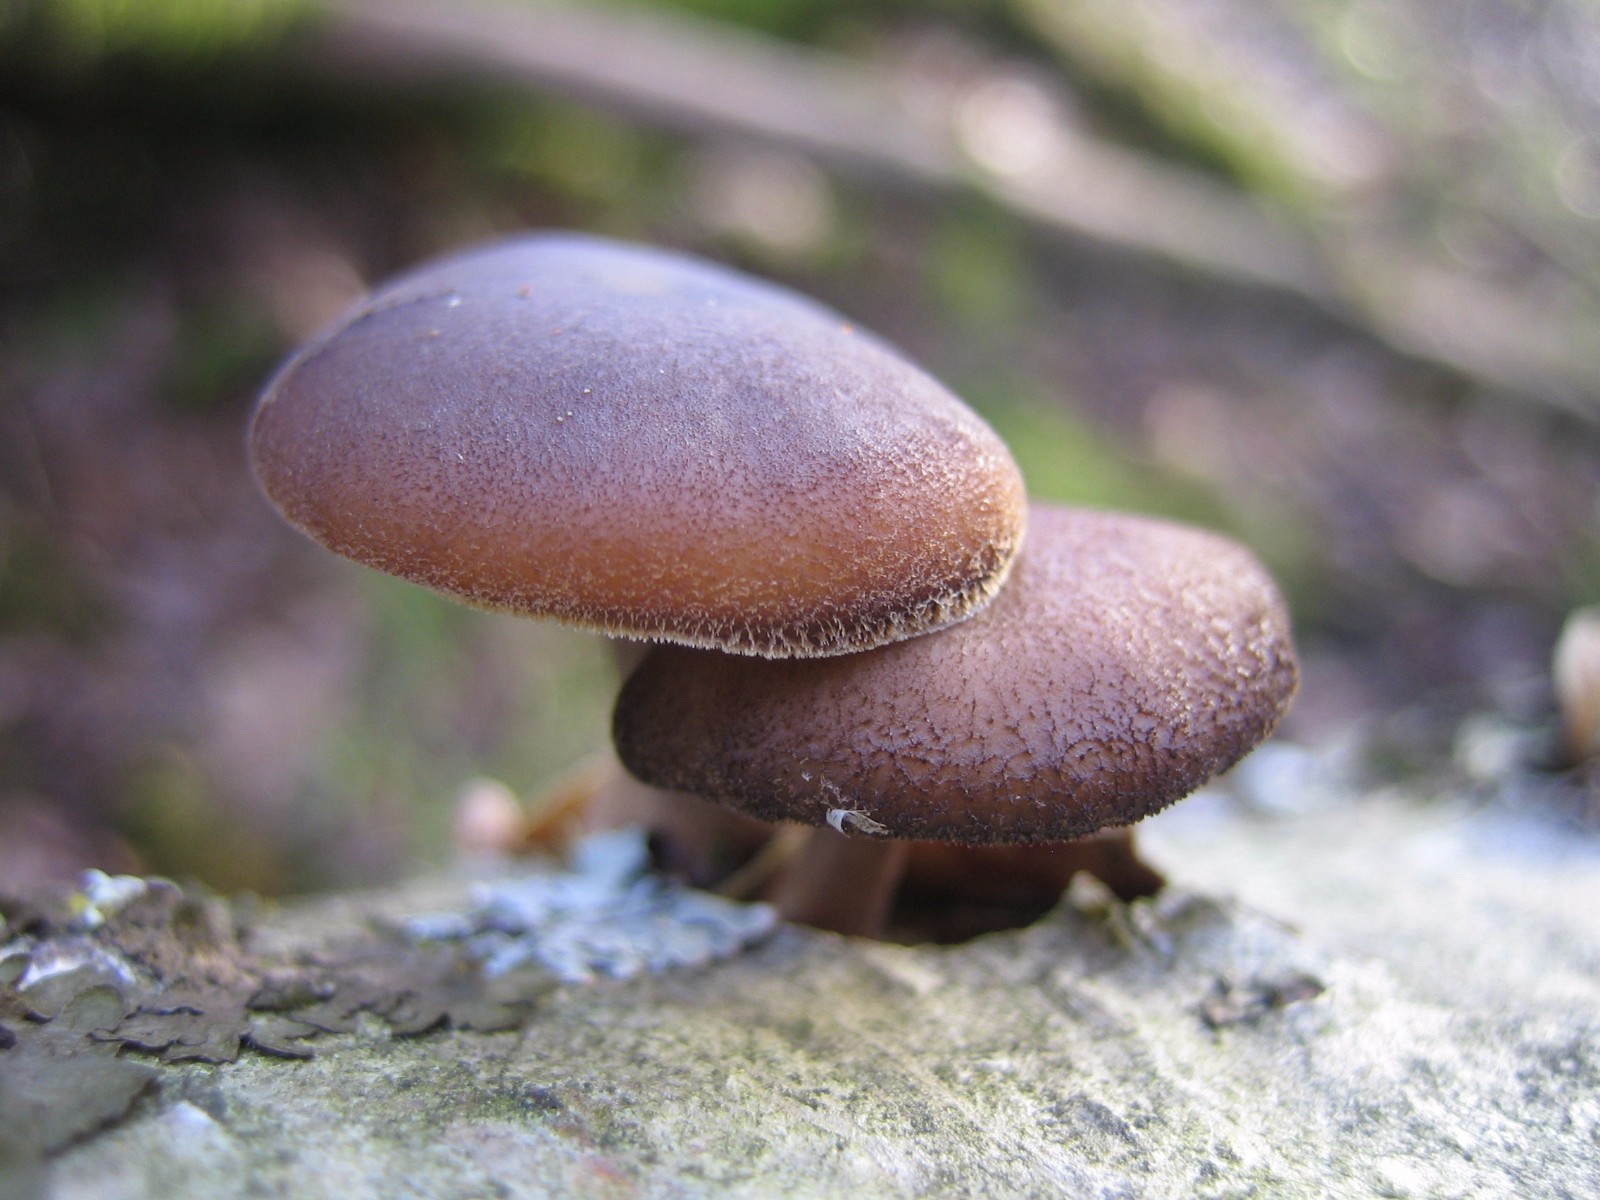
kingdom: Fungi
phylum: Basidiomycota
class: Agaricomycetes
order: Polyporales
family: Polyporaceae
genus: Lentinus
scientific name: Lentinus brumalis
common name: vinter-stilkporesvamp
